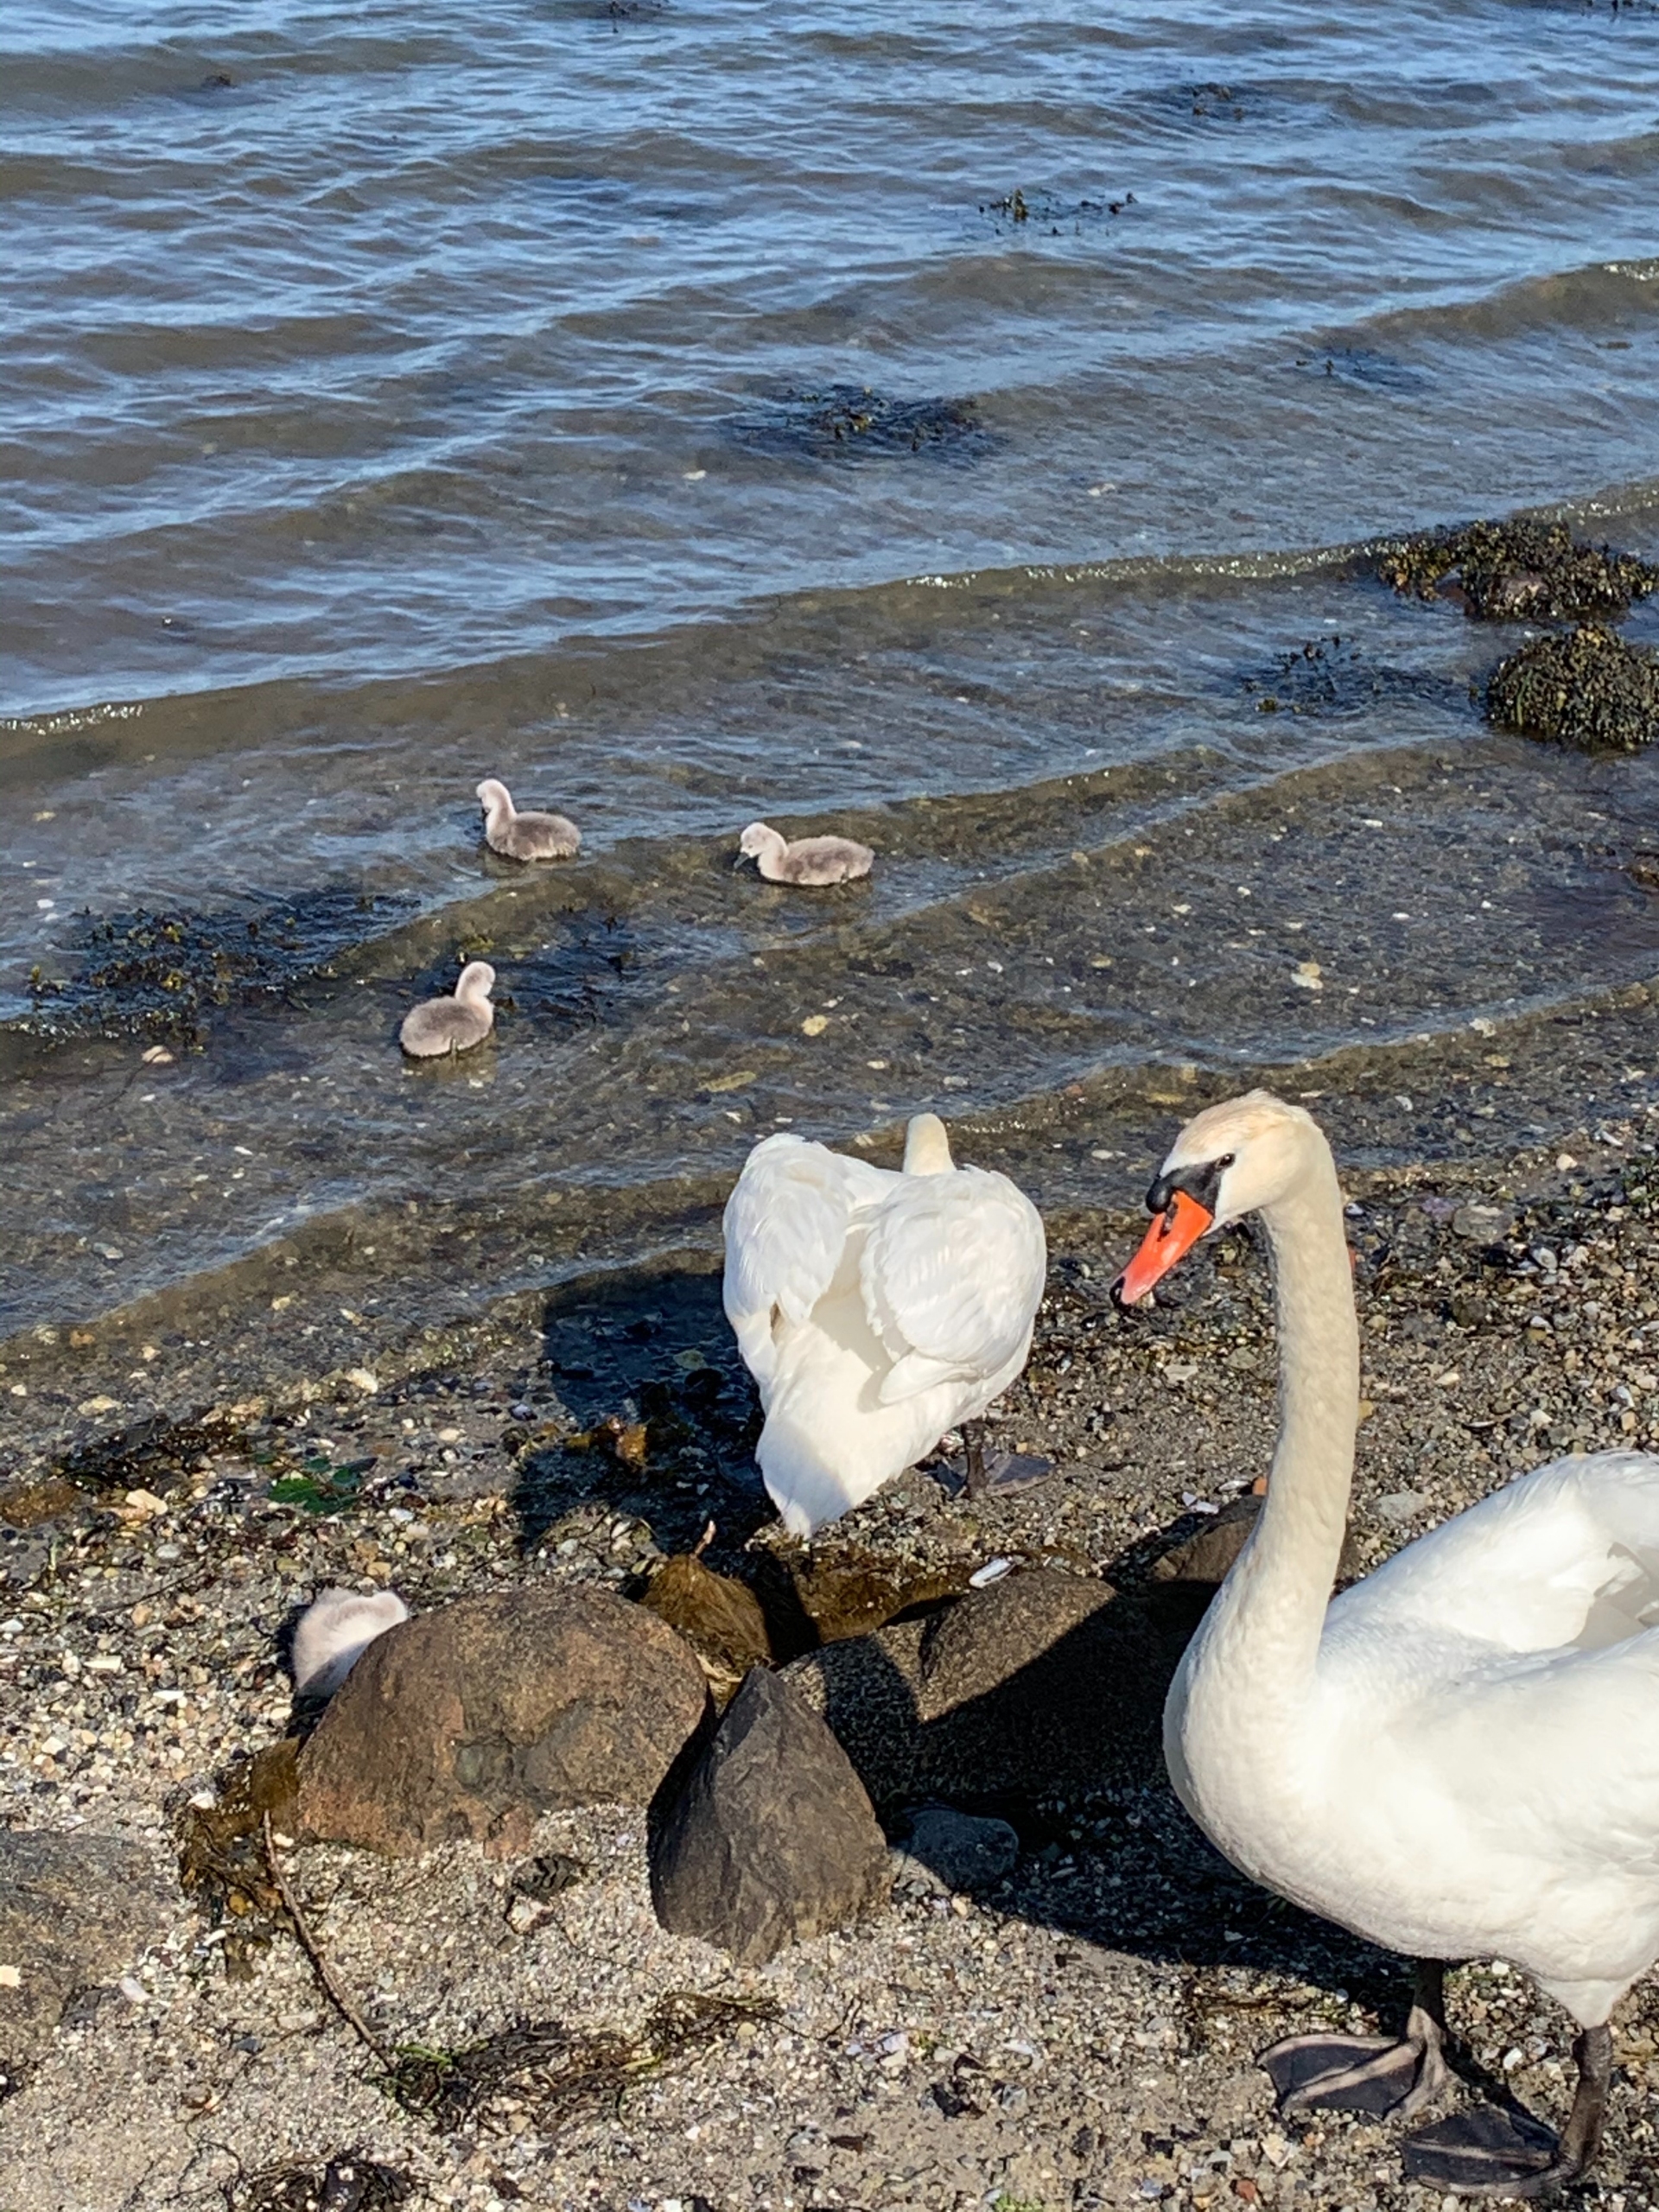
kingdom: Animalia
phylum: Chordata
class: Aves
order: Anseriformes
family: Anatidae
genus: Cygnus
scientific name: Cygnus olor
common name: Knopsvane
